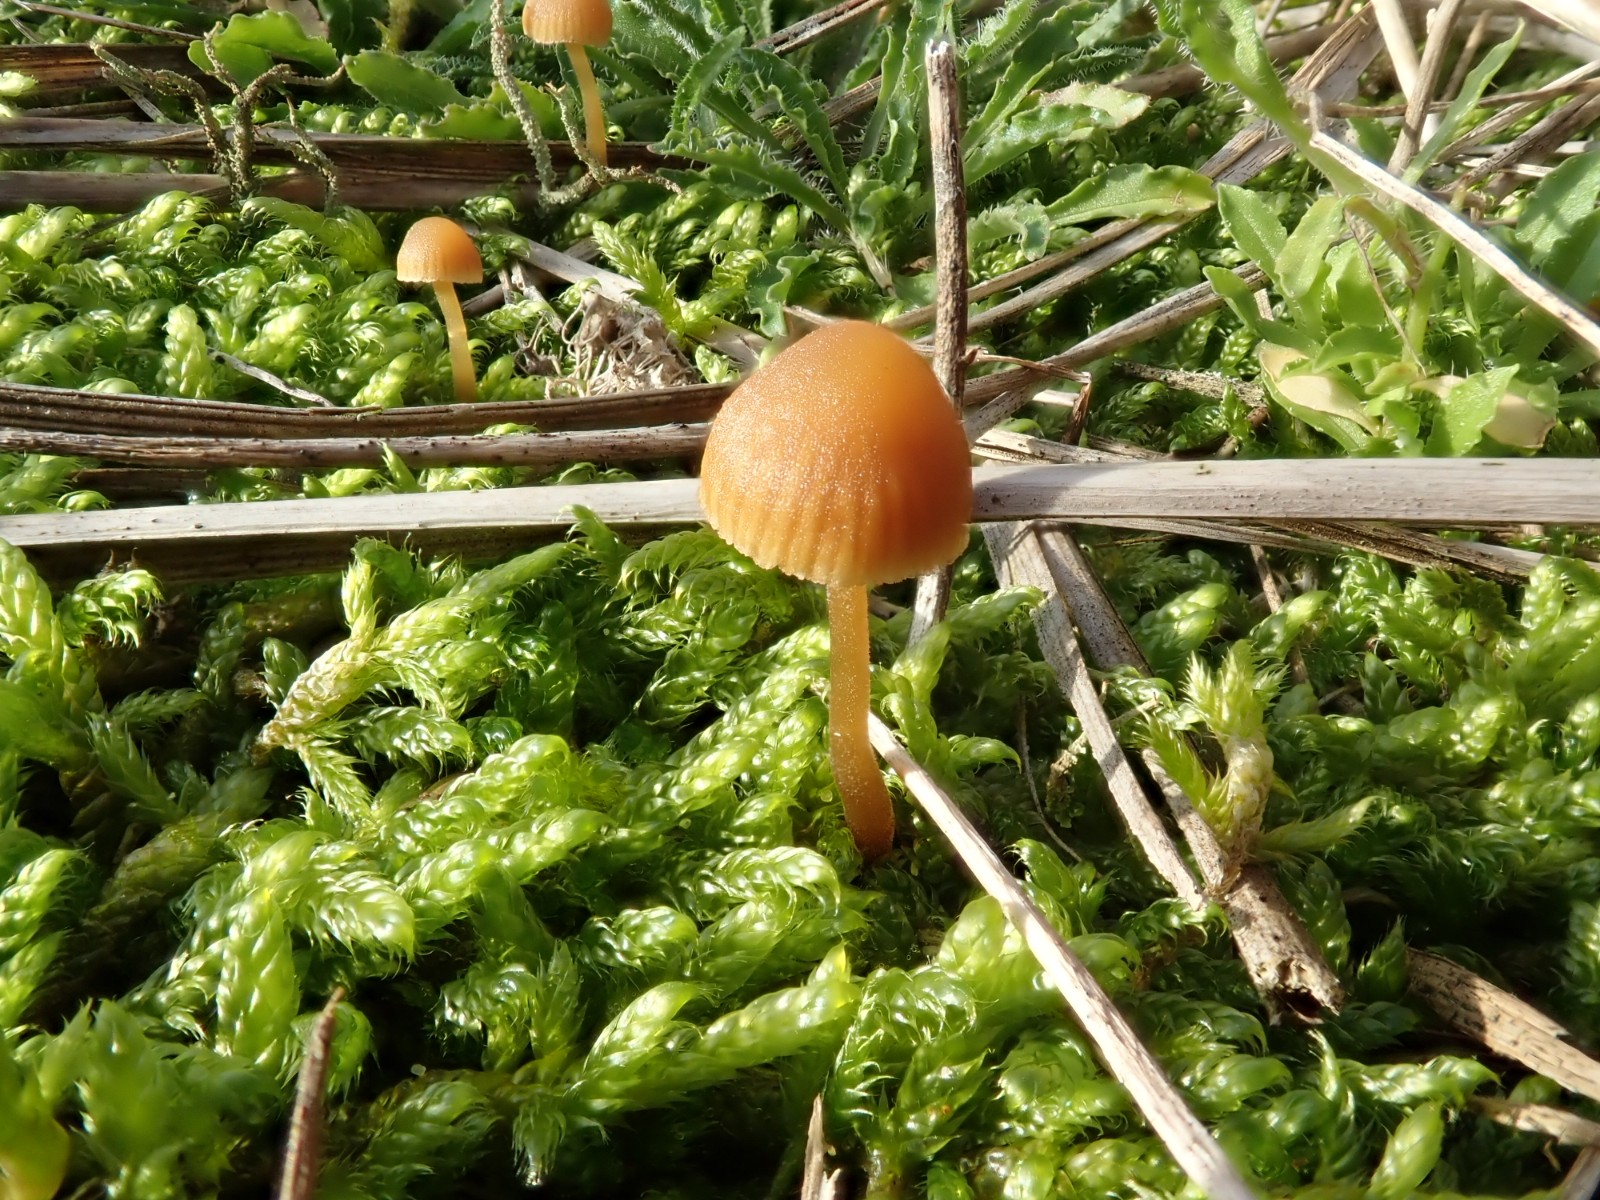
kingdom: Fungi
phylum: Basidiomycota
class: Agaricomycetes
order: Agaricales
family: Hymenogastraceae
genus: Galerina
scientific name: Galerina
